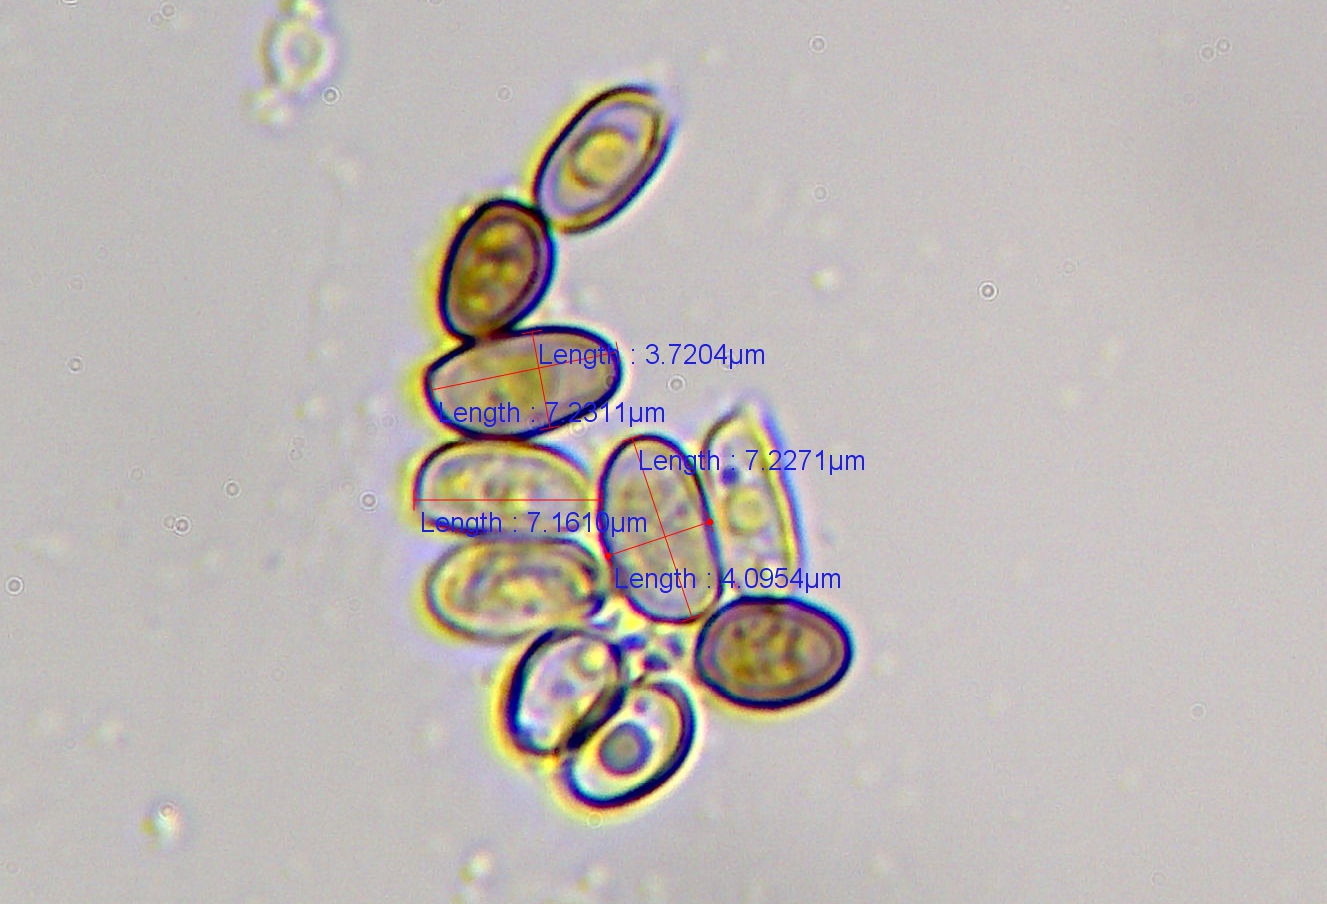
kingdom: Fungi
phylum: Basidiomycota
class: Agaricomycetes
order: Agaricales
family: Agaricaceae
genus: Agaricus
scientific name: Agaricus sylvicola
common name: skiveknoldet champignon
